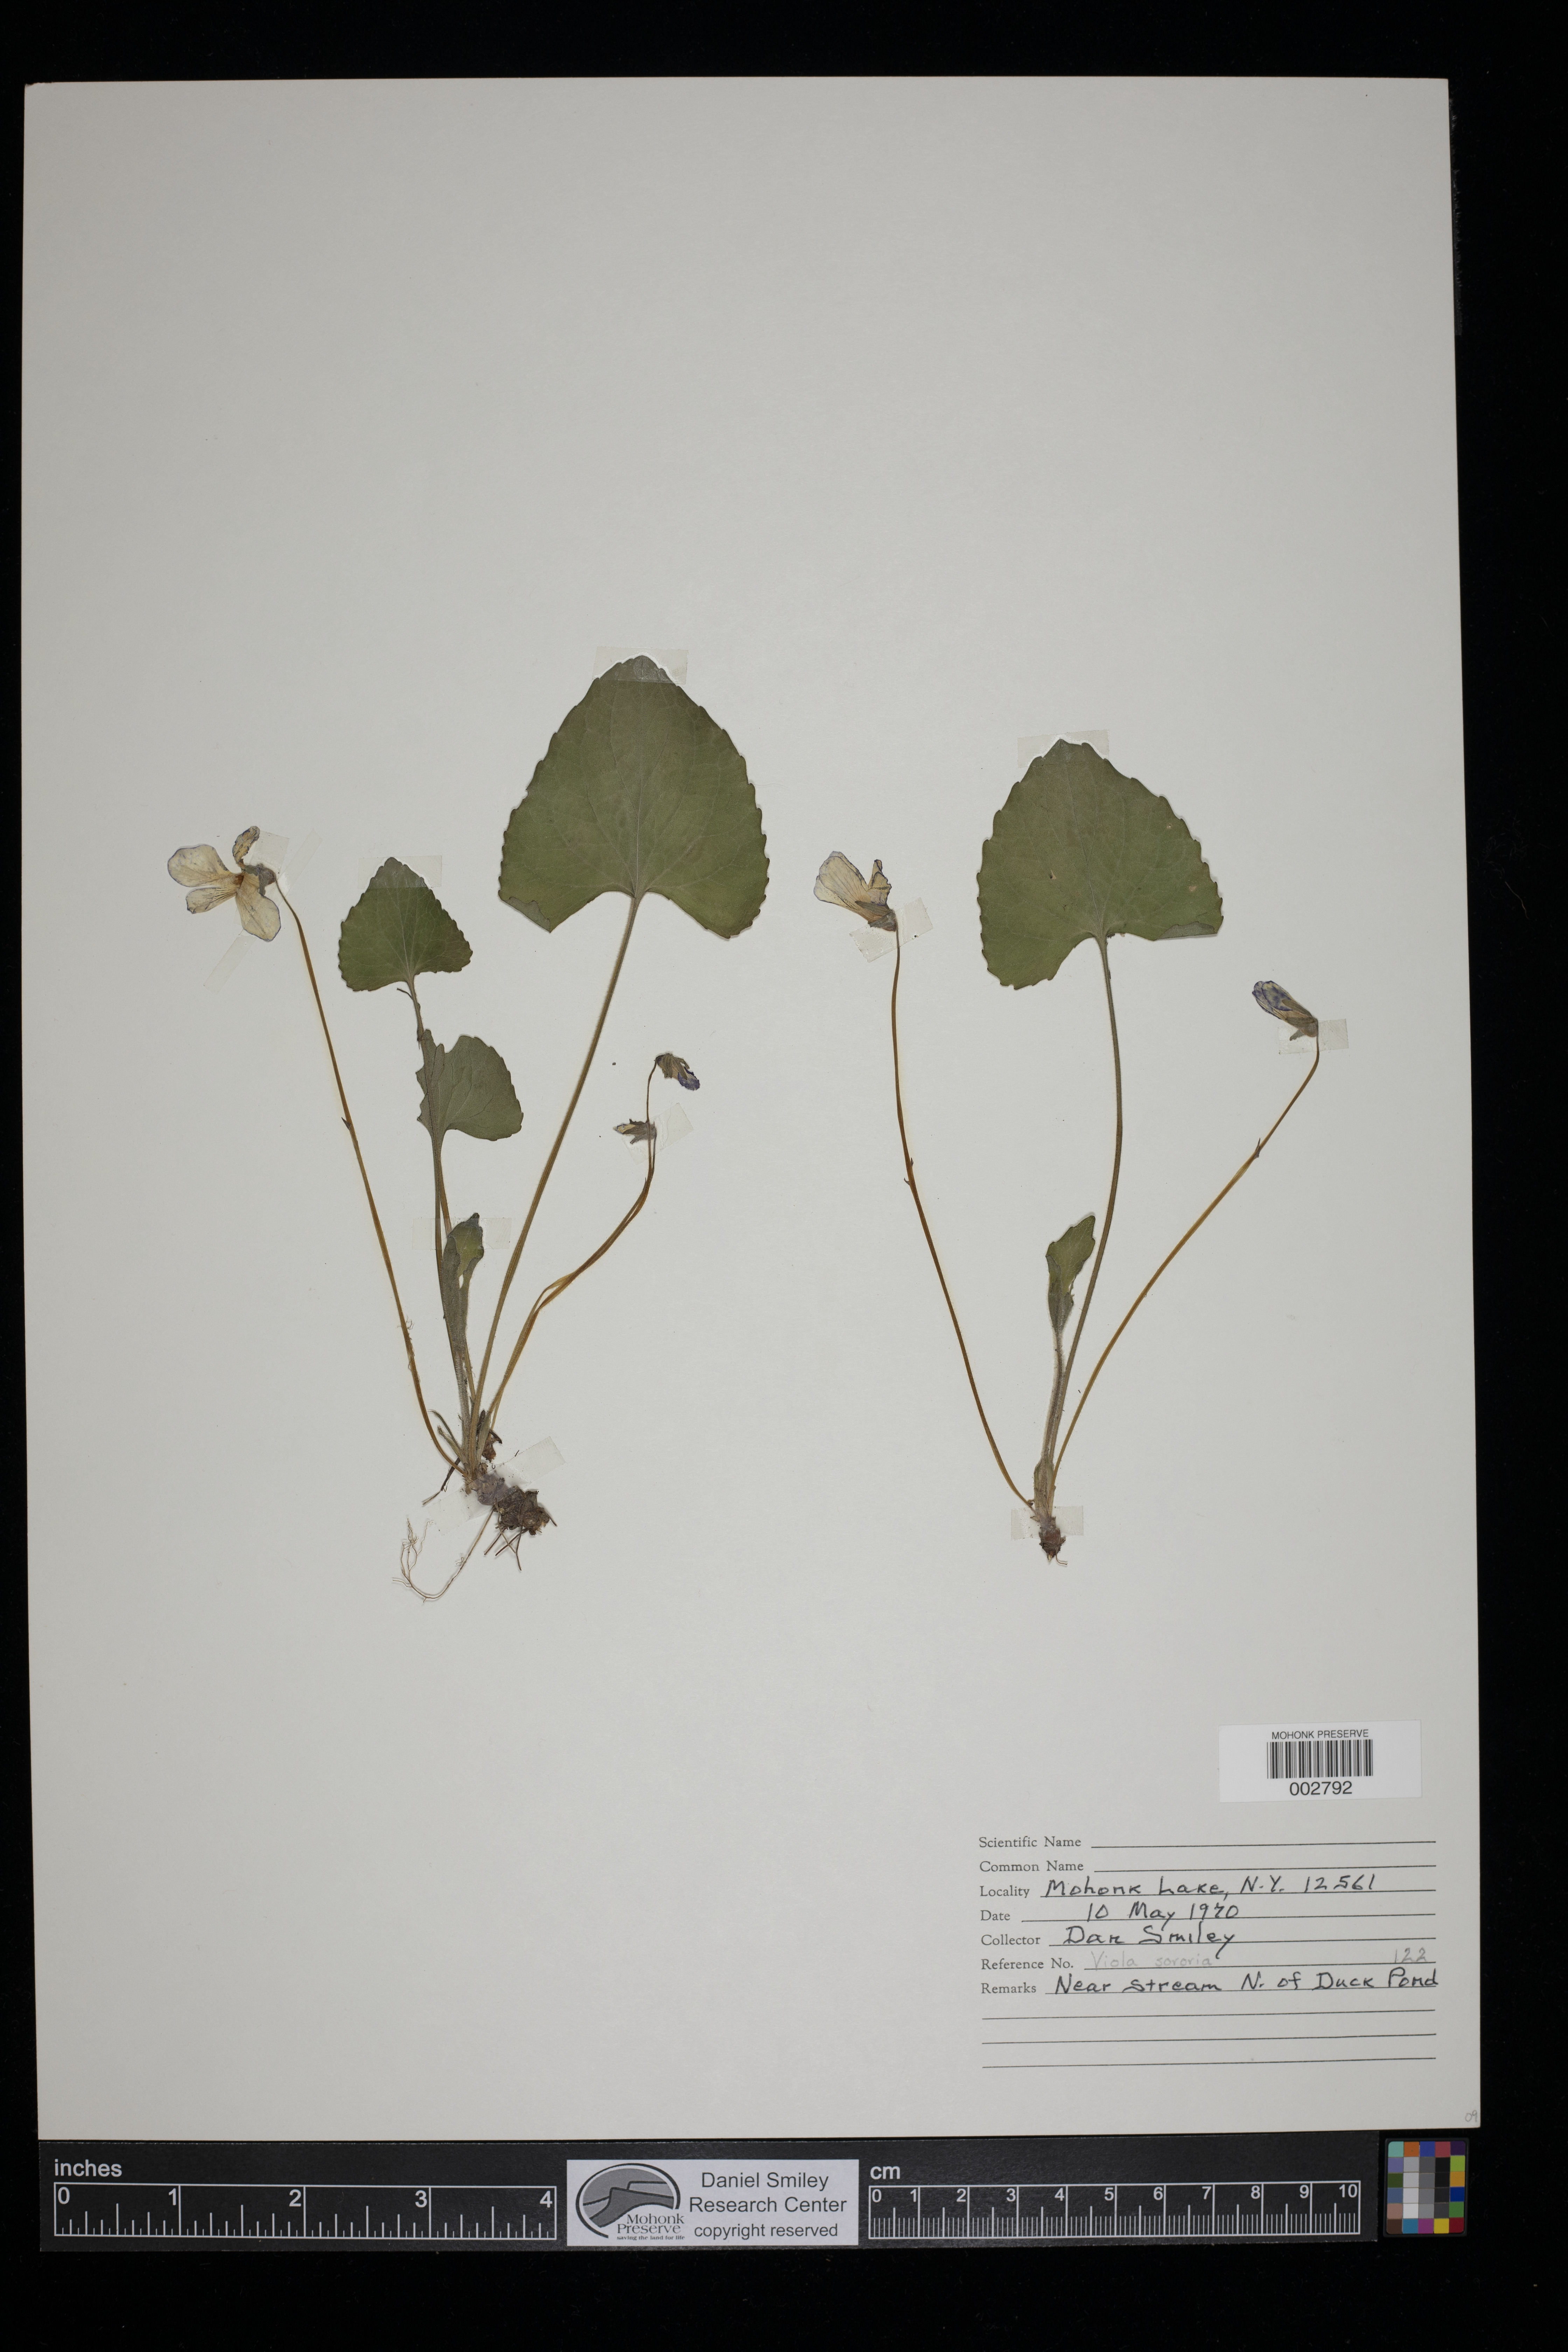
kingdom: Plantae
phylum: Tracheophyta
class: Magnoliopsida
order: Malpighiales
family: Violaceae
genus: Viola
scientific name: Viola sororia
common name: Dooryard violet
